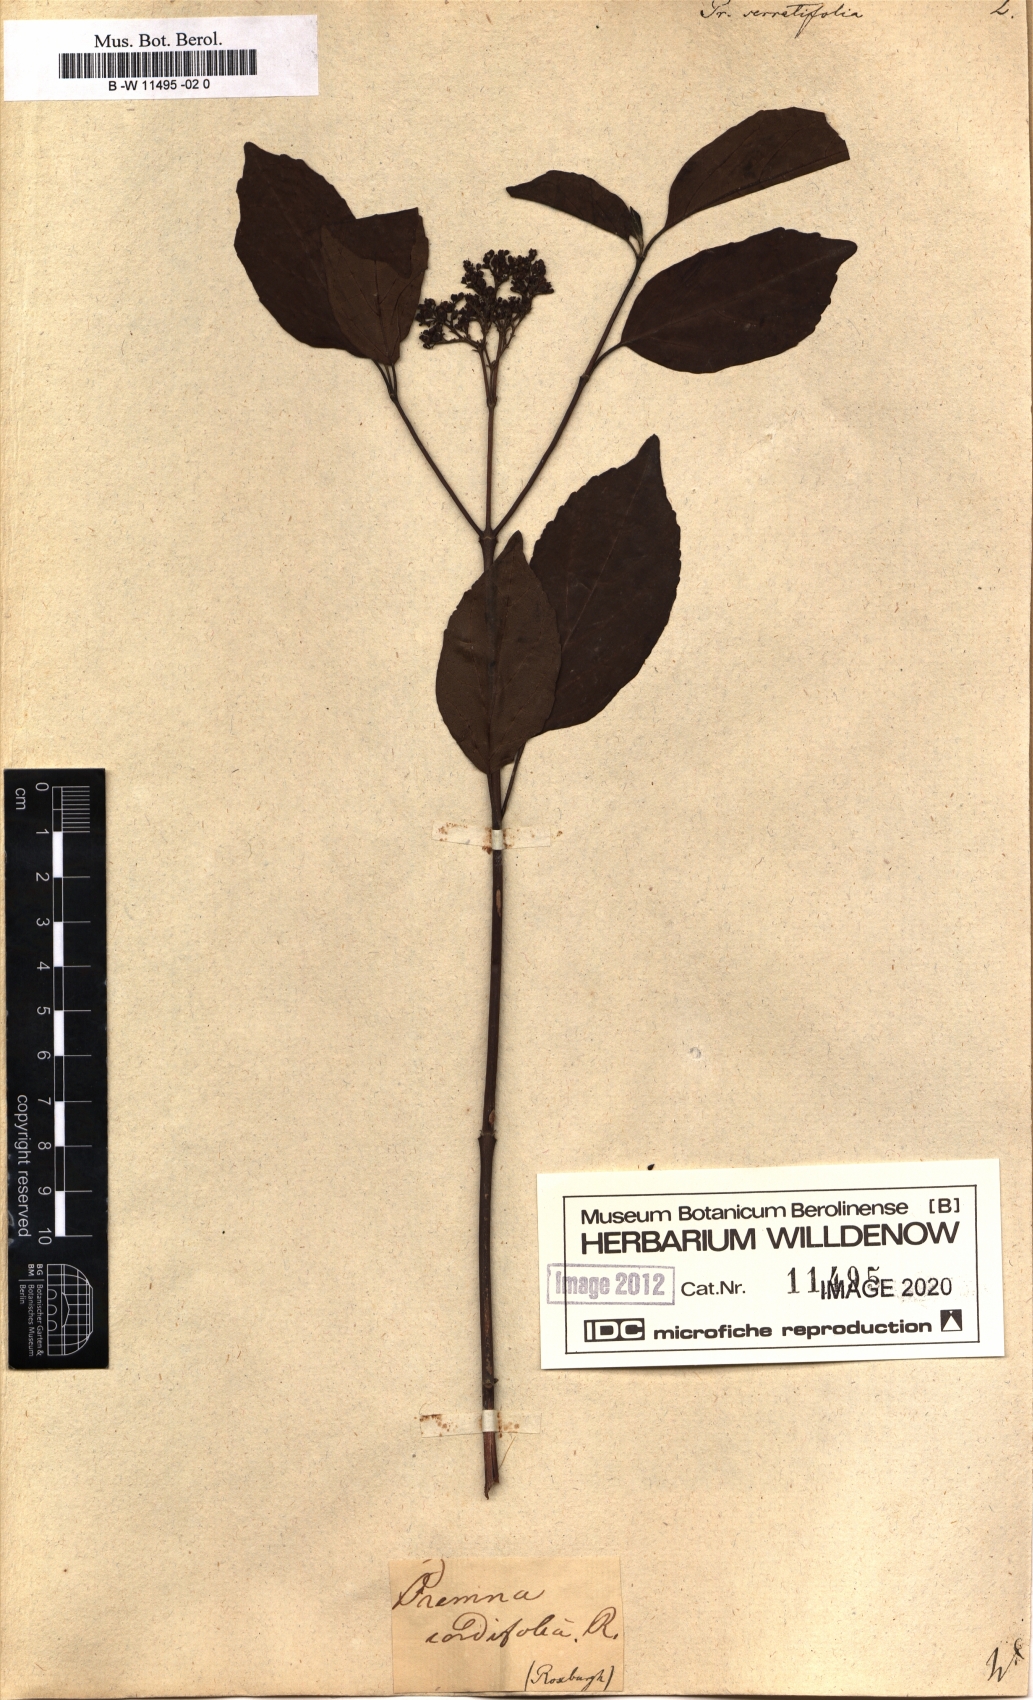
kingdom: Plantae
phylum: Tracheophyta
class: Magnoliopsida
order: Lamiales
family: Lamiaceae
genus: Premna
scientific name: Premna serratifolia
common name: Bastard guelder
